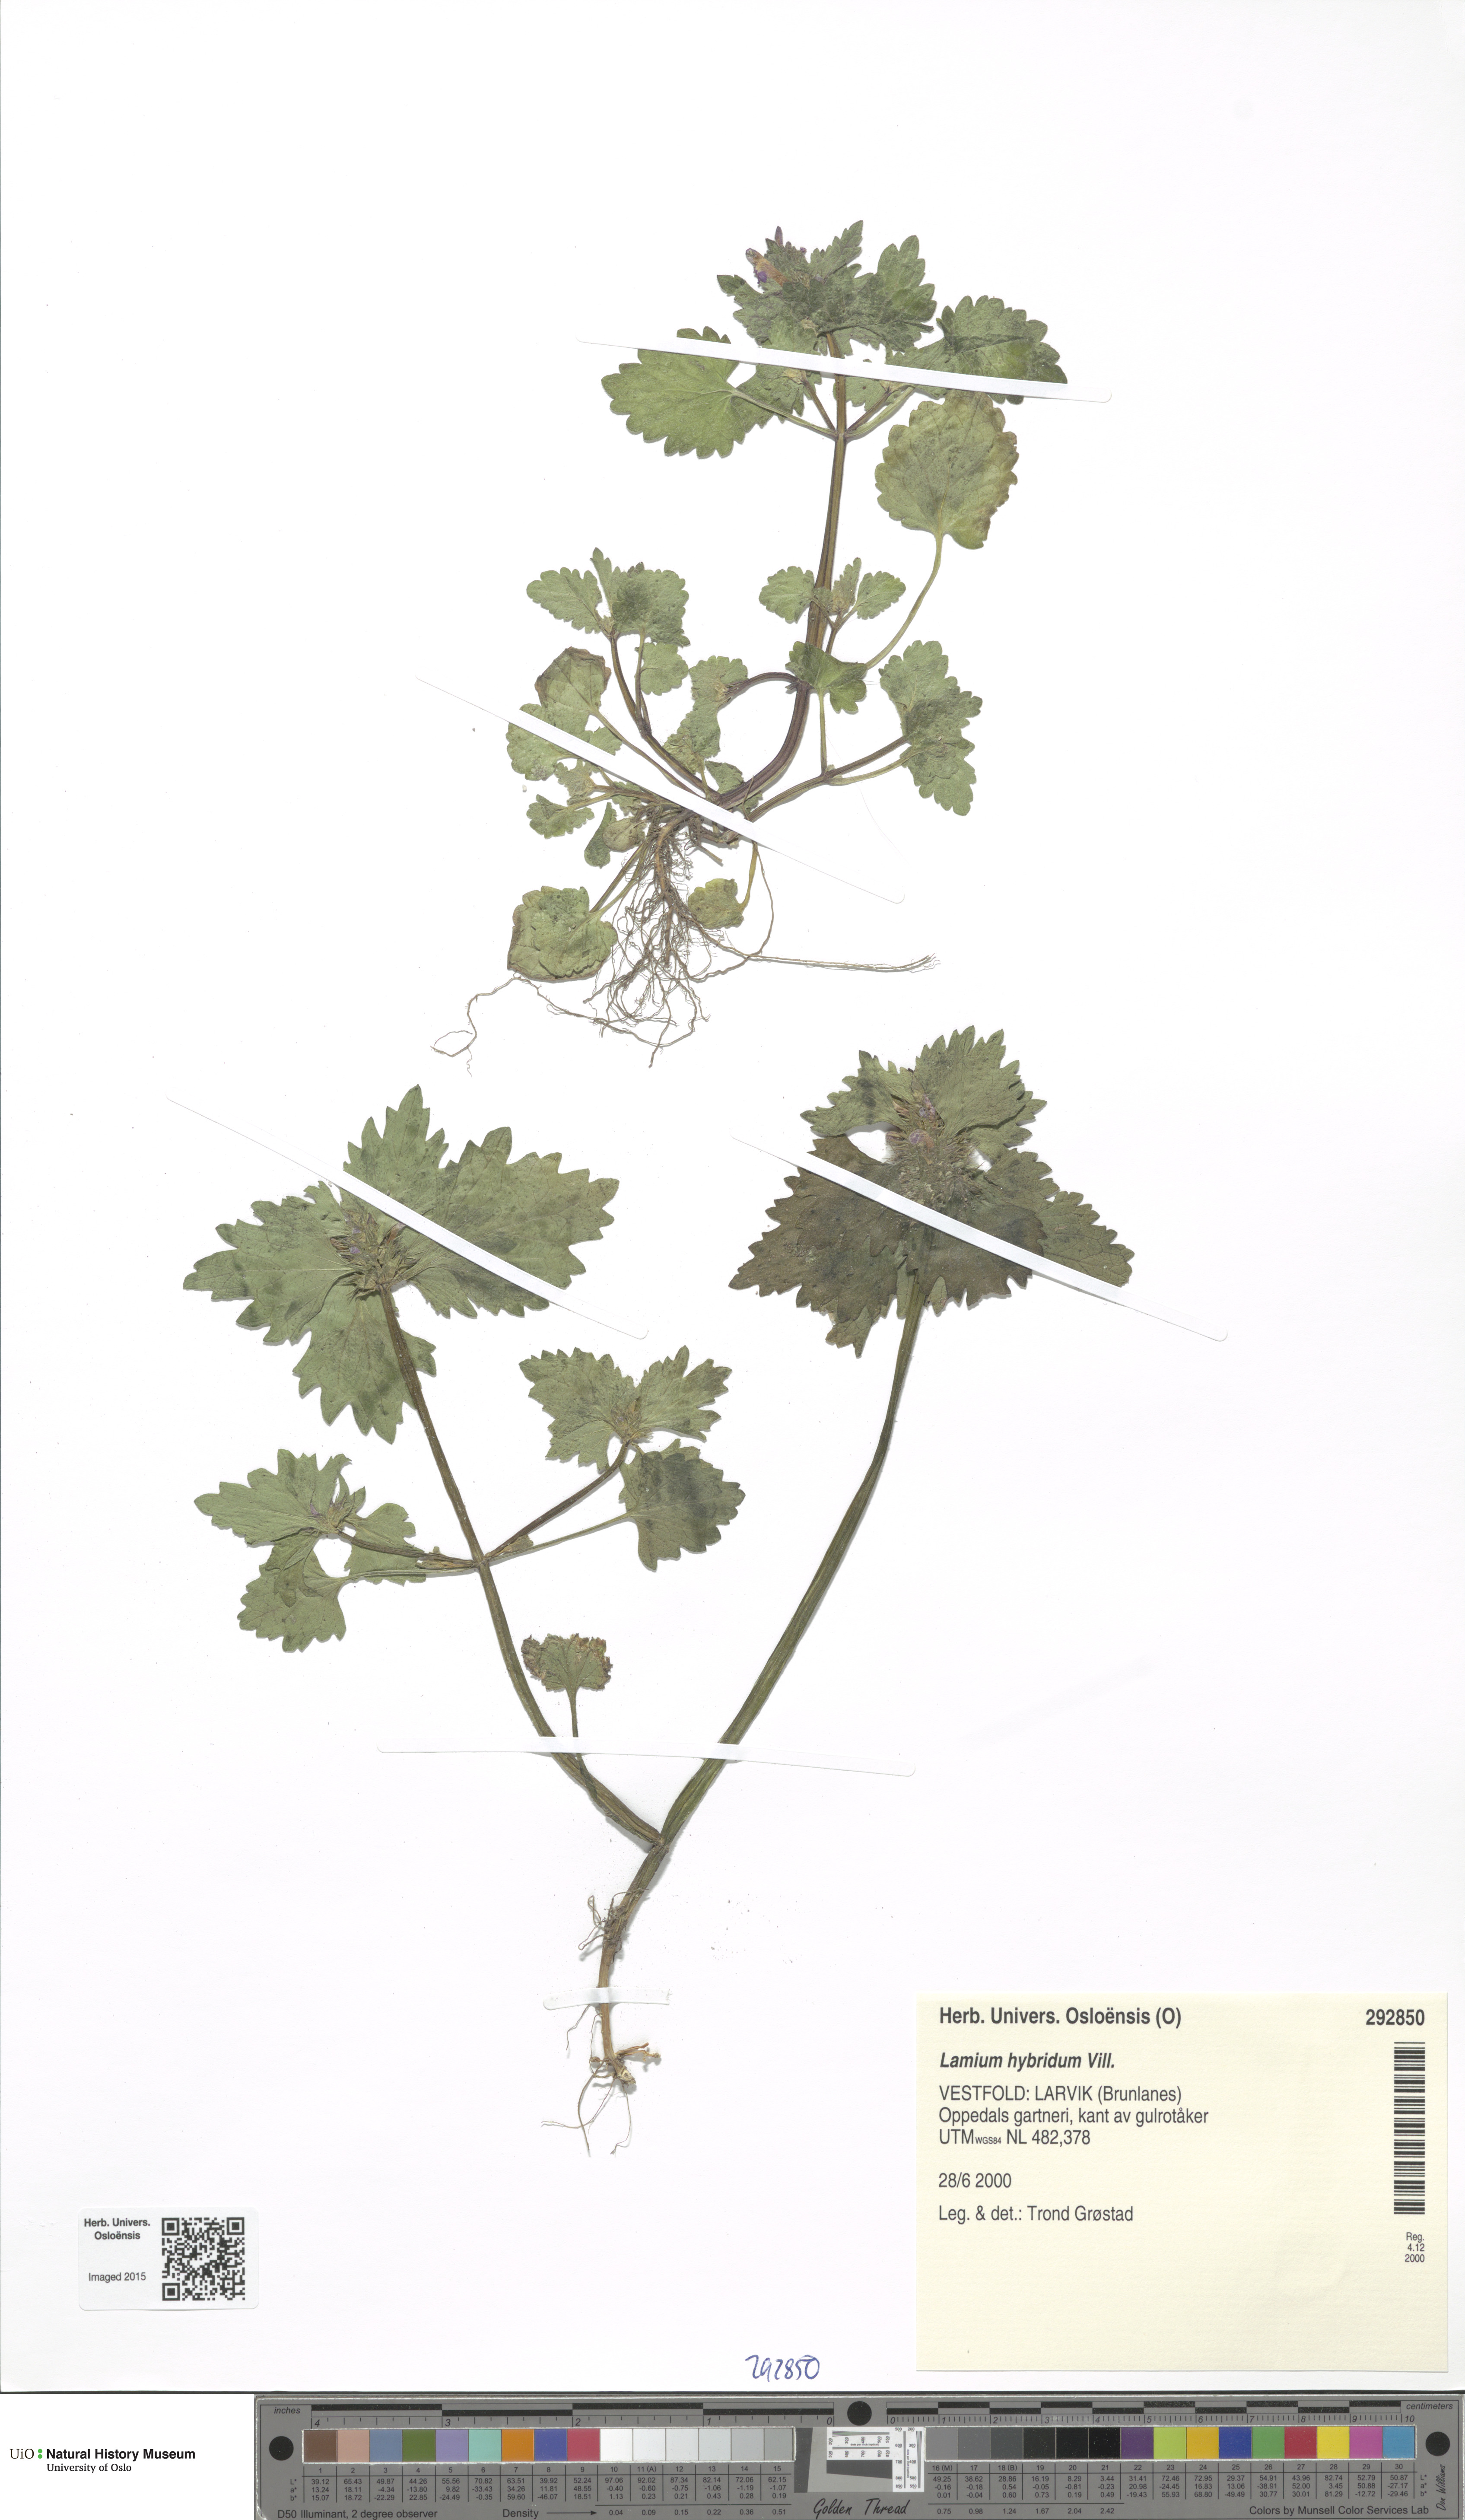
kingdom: Plantae
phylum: Tracheophyta
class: Magnoliopsida
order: Lamiales
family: Lamiaceae
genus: Lamium
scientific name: Lamium hybridum
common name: Cut-leaved dead-nettle
